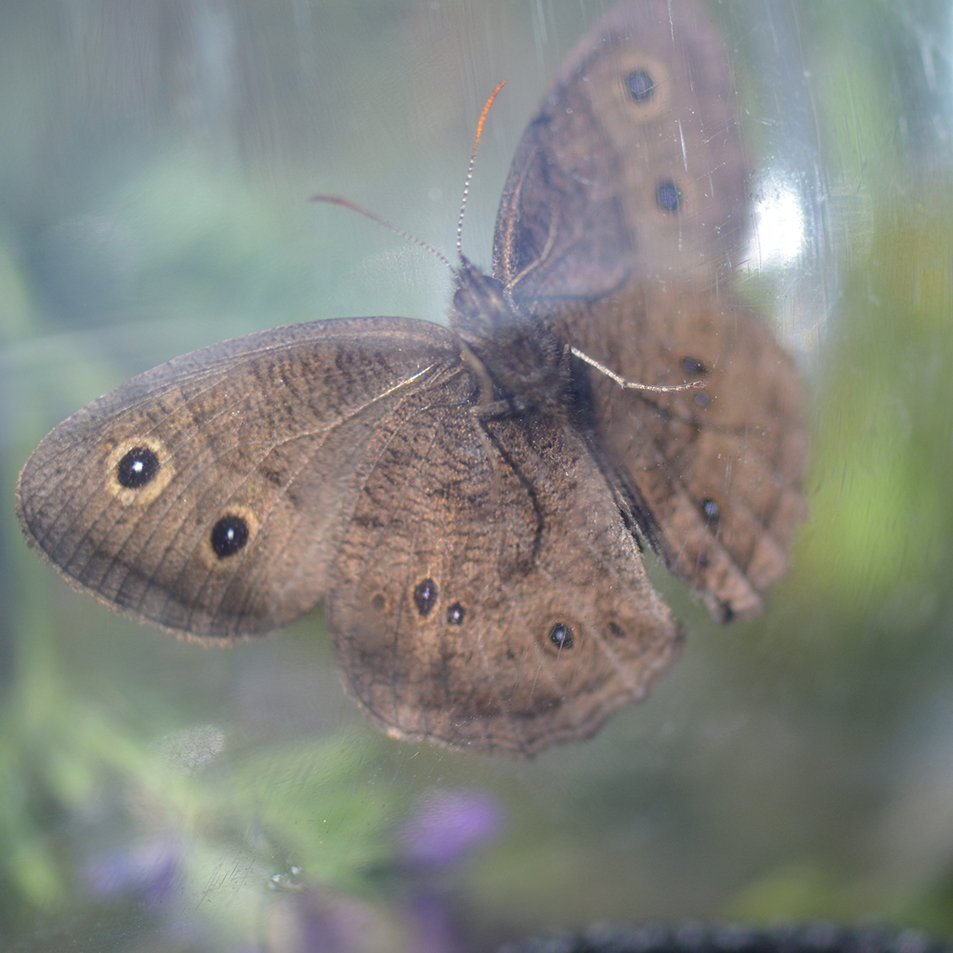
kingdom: Animalia
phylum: Arthropoda
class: Insecta
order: Lepidoptera
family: Nymphalidae
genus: Cercyonis
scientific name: Cercyonis pegala
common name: Common Wood-Nymph
